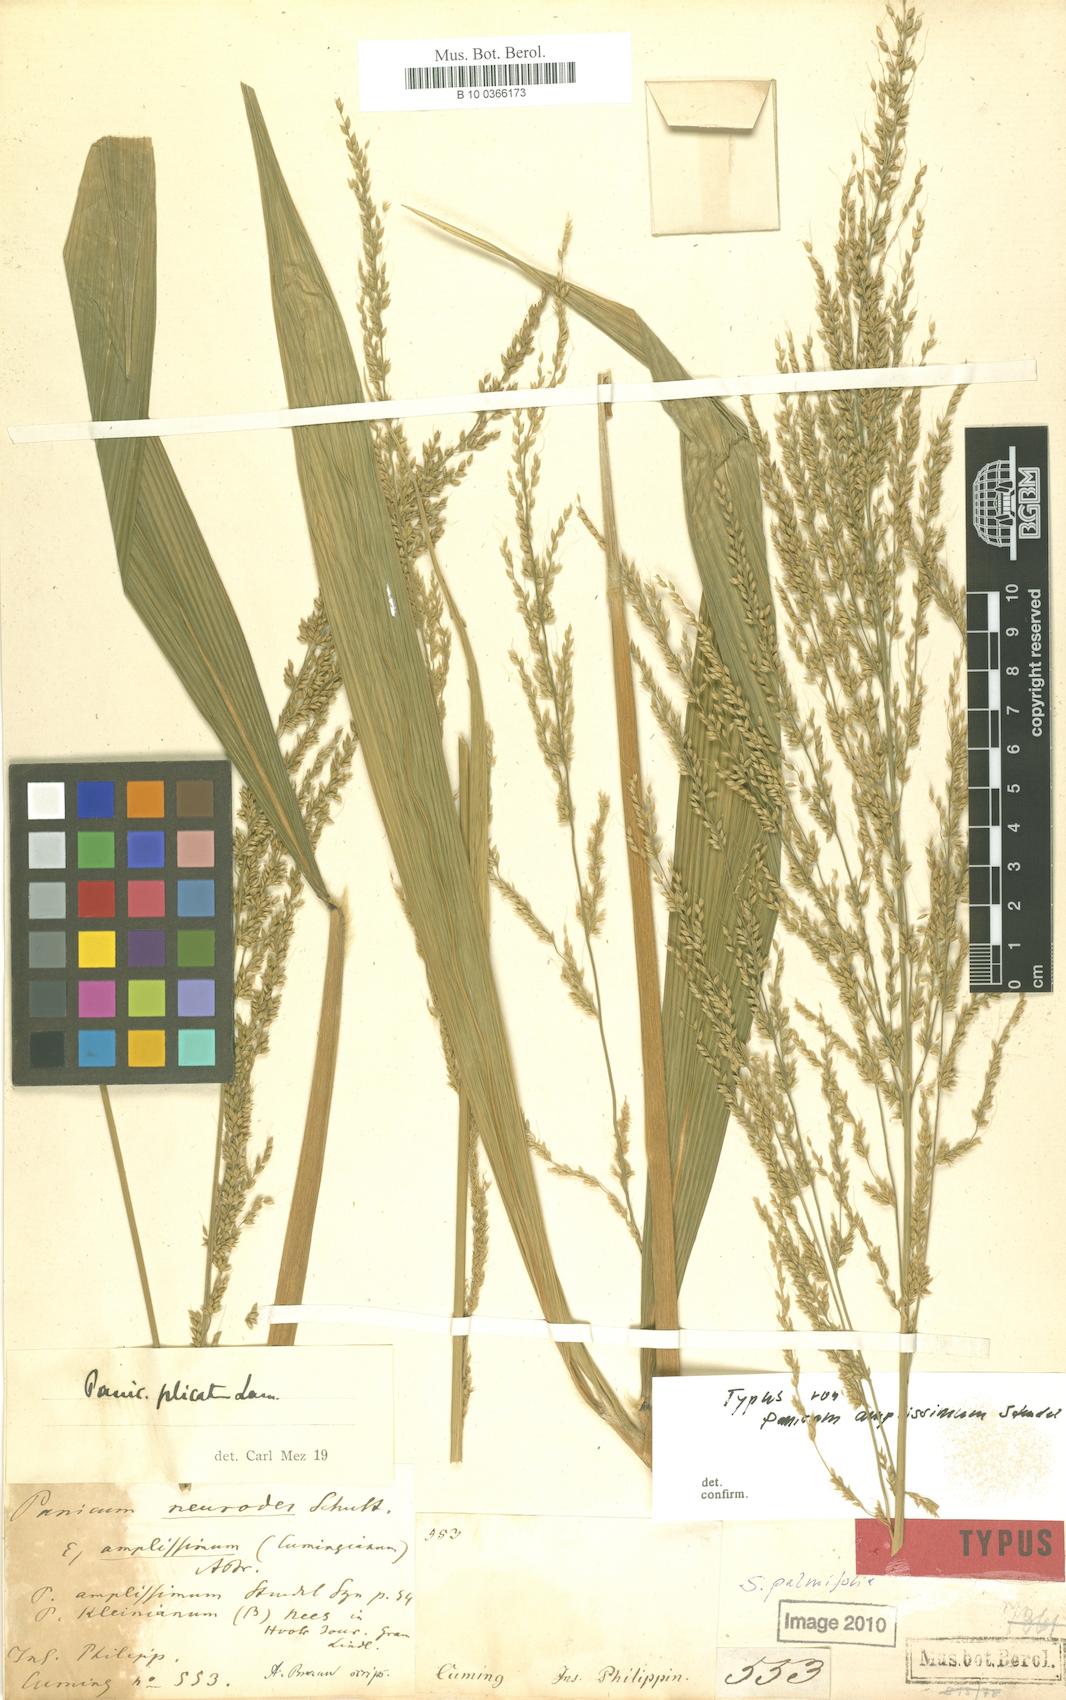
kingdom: Plantae
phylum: Tracheophyta
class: Liliopsida
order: Poales
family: Poaceae
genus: Setaria
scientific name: Setaria palmifolia
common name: Broadleaved bristlegrass
